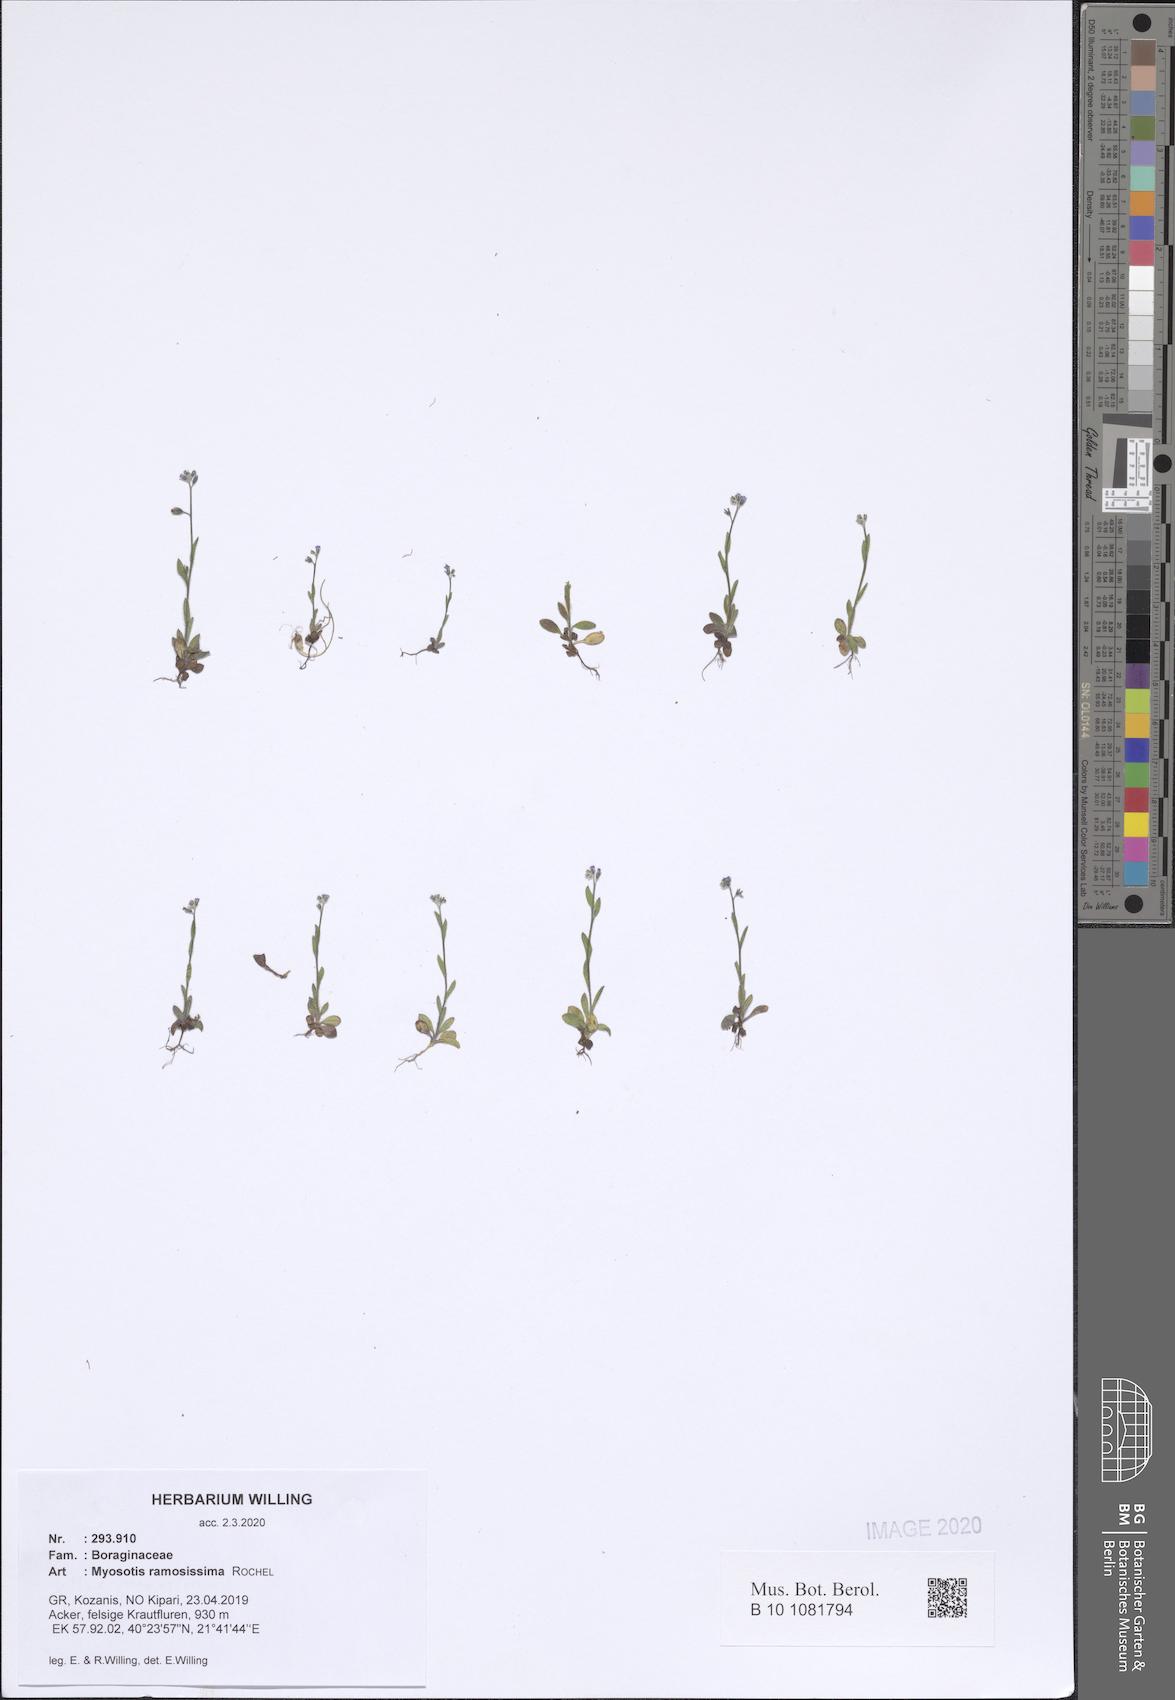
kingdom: Plantae
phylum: Tracheophyta
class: Magnoliopsida
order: Boraginales
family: Boraginaceae
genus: Myosotis
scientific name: Myosotis ramosissima
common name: Early forget-me-not
